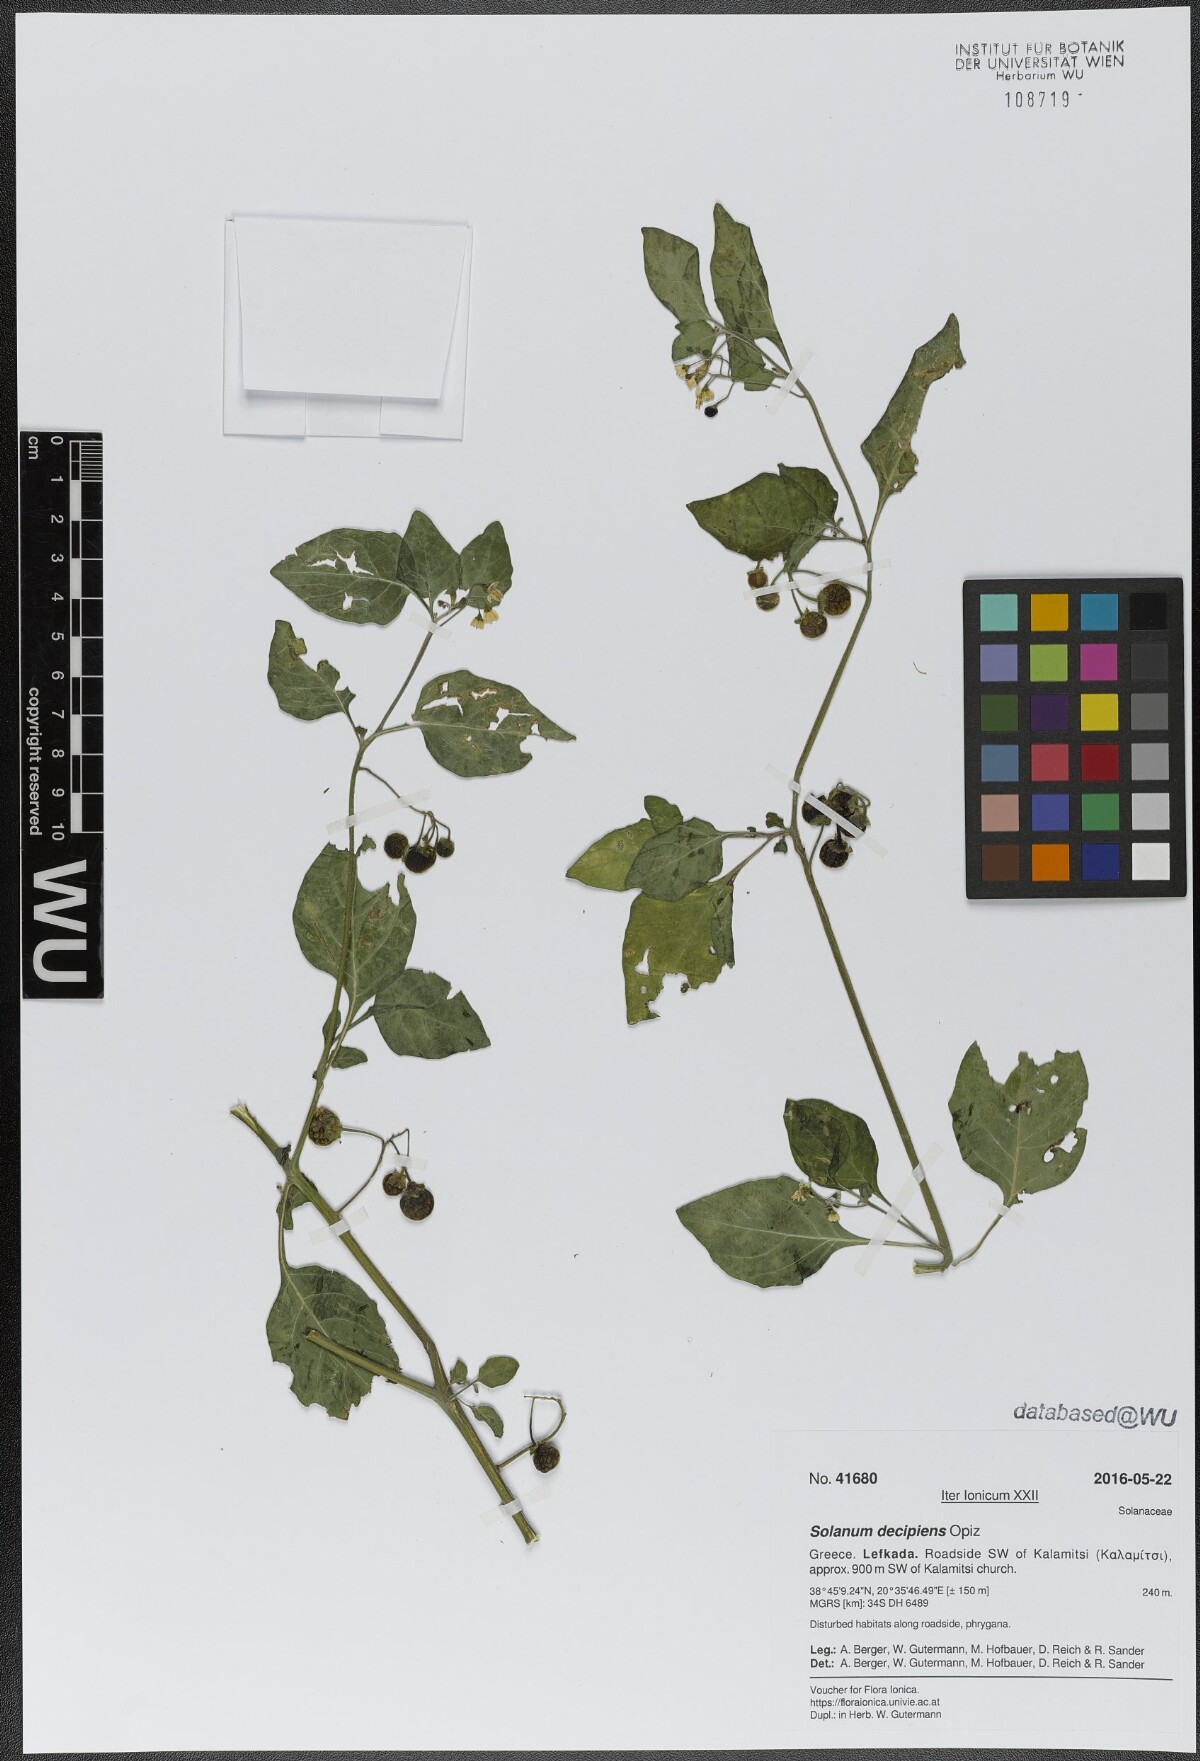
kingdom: Plantae
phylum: Tracheophyta
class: Magnoliopsida
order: Solanales
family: Solanaceae
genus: Solanum
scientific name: Solanum decipiens
